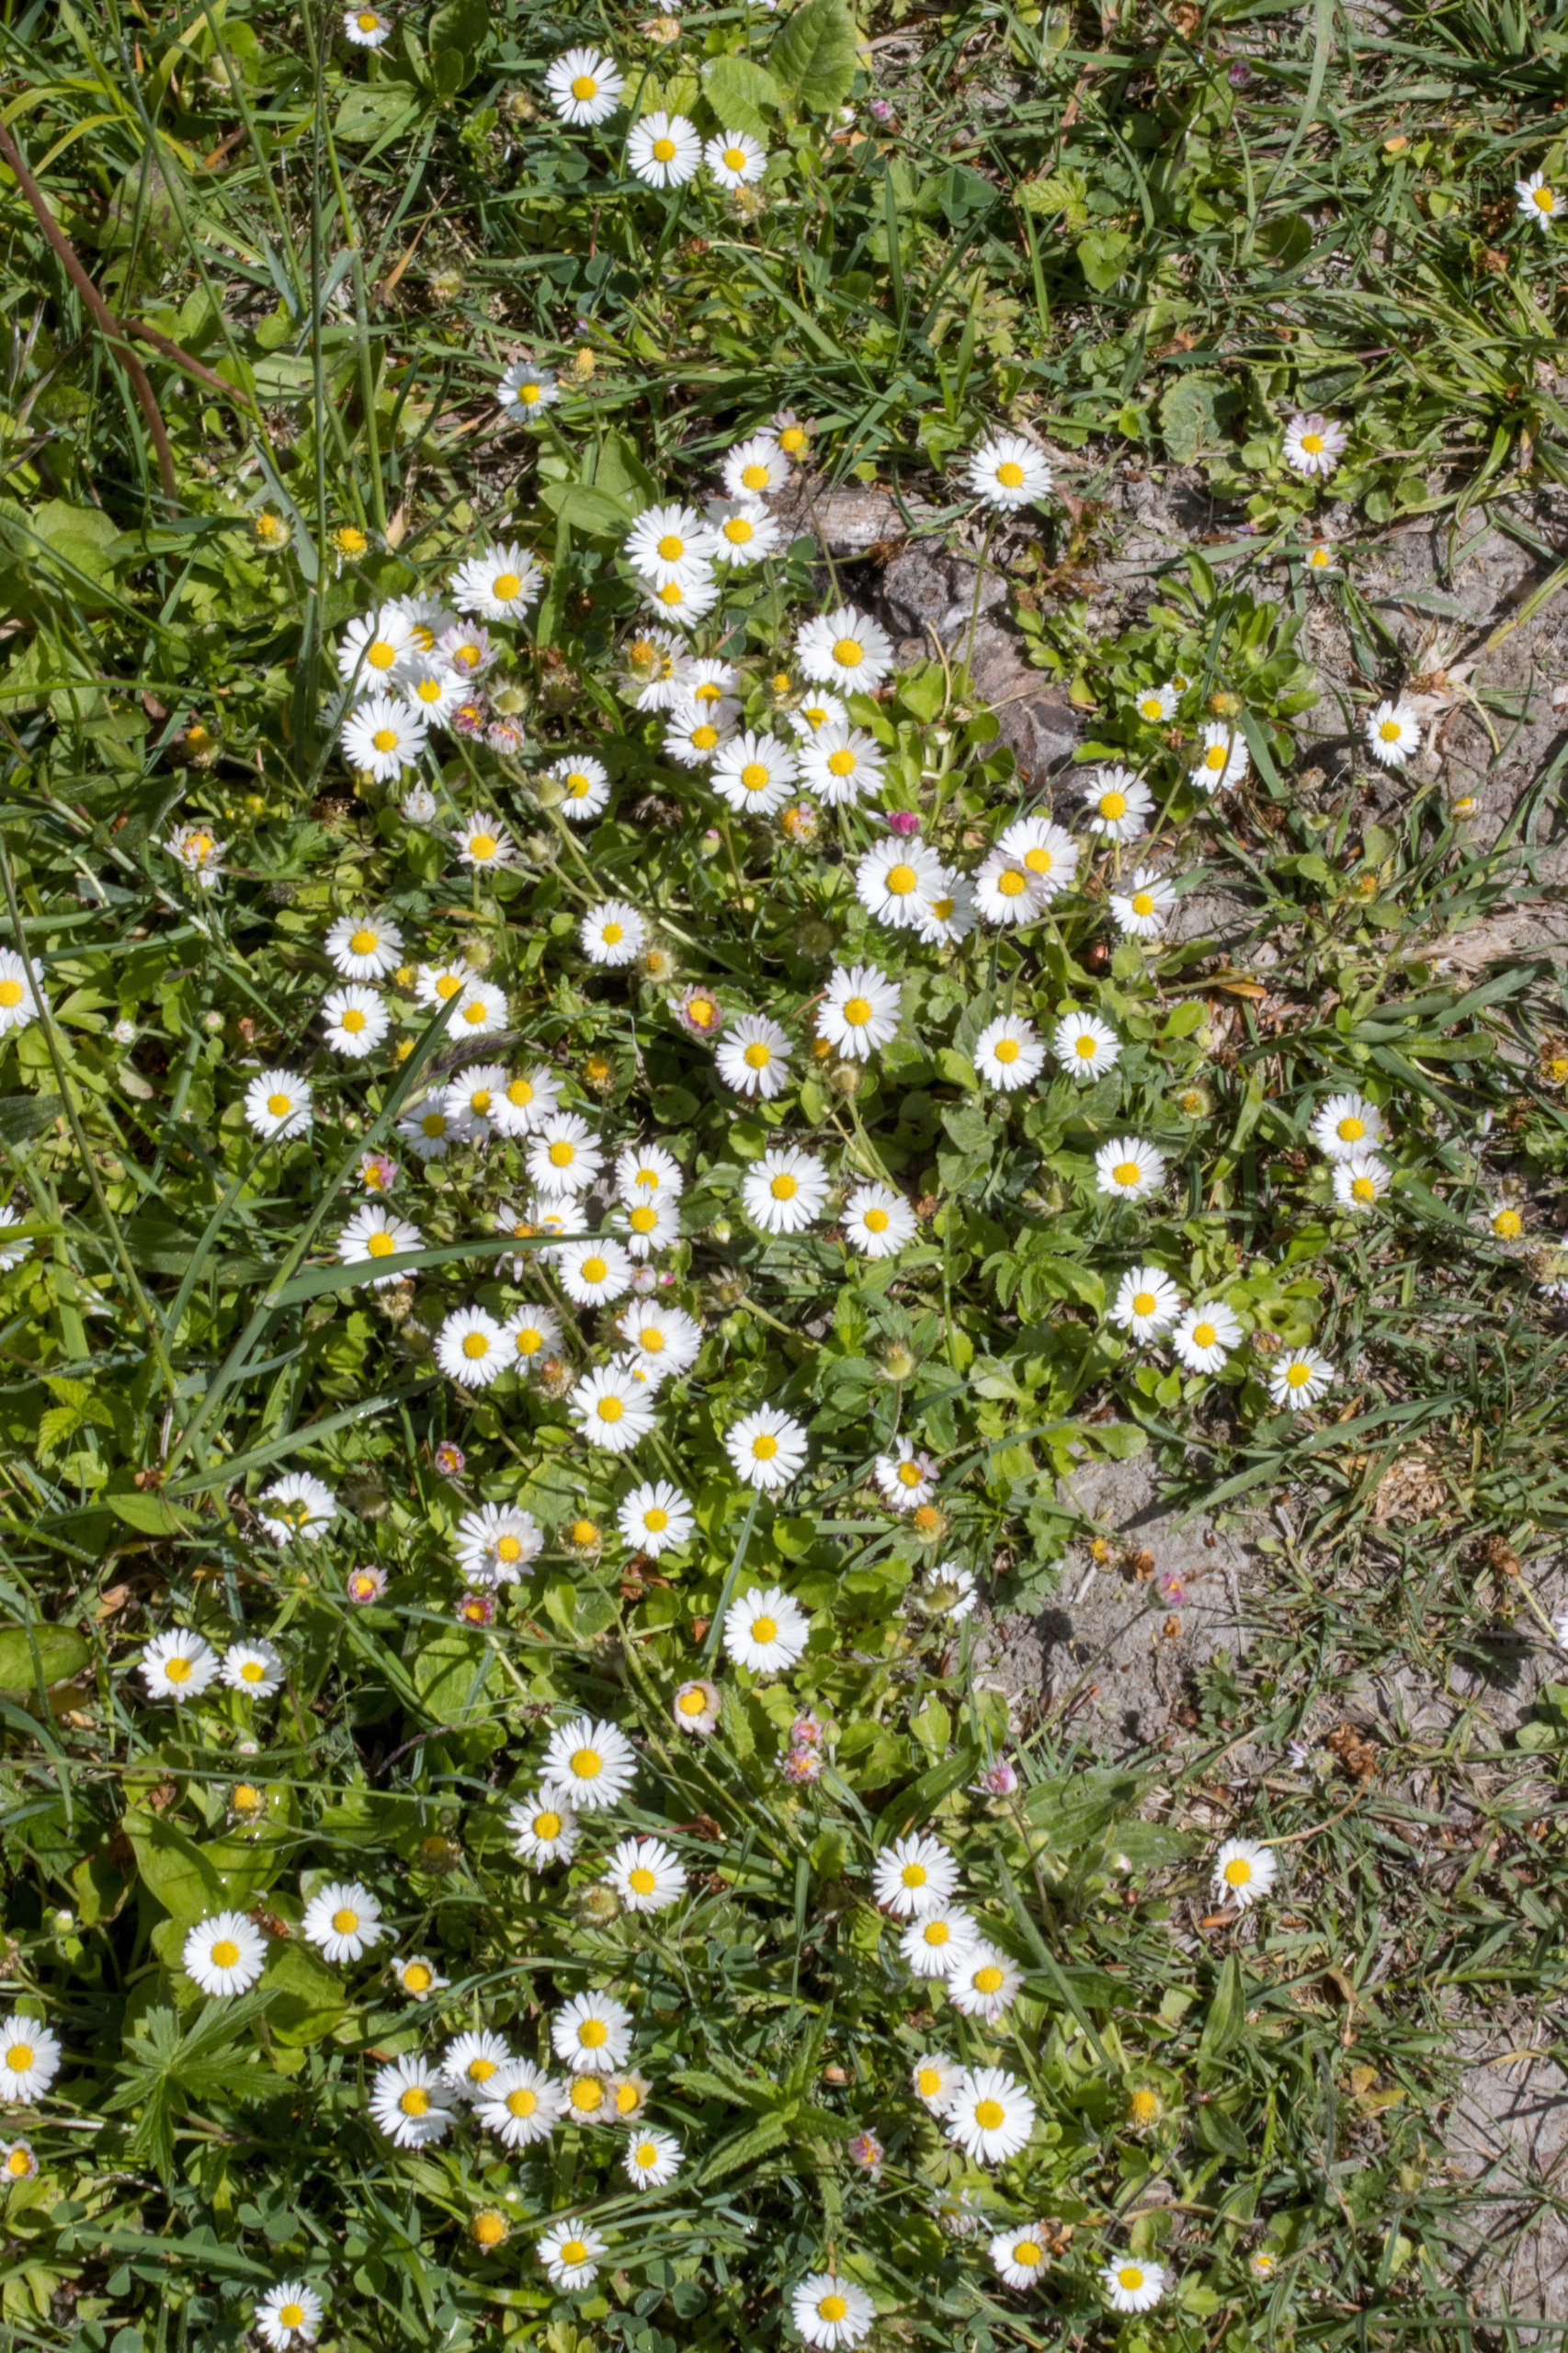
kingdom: Plantae
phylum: Tracheophyta
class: Magnoliopsida
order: Asterales
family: Asteraceae
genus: Bellis
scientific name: Bellis perennis
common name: Tusindfryd
